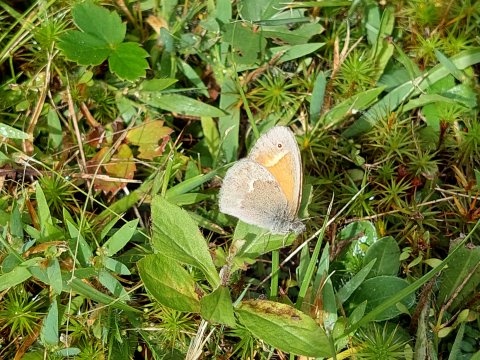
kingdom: Animalia
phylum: Arthropoda
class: Insecta
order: Lepidoptera
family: Nymphalidae
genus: Coenonympha
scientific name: Coenonympha tullia
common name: Large Heath
